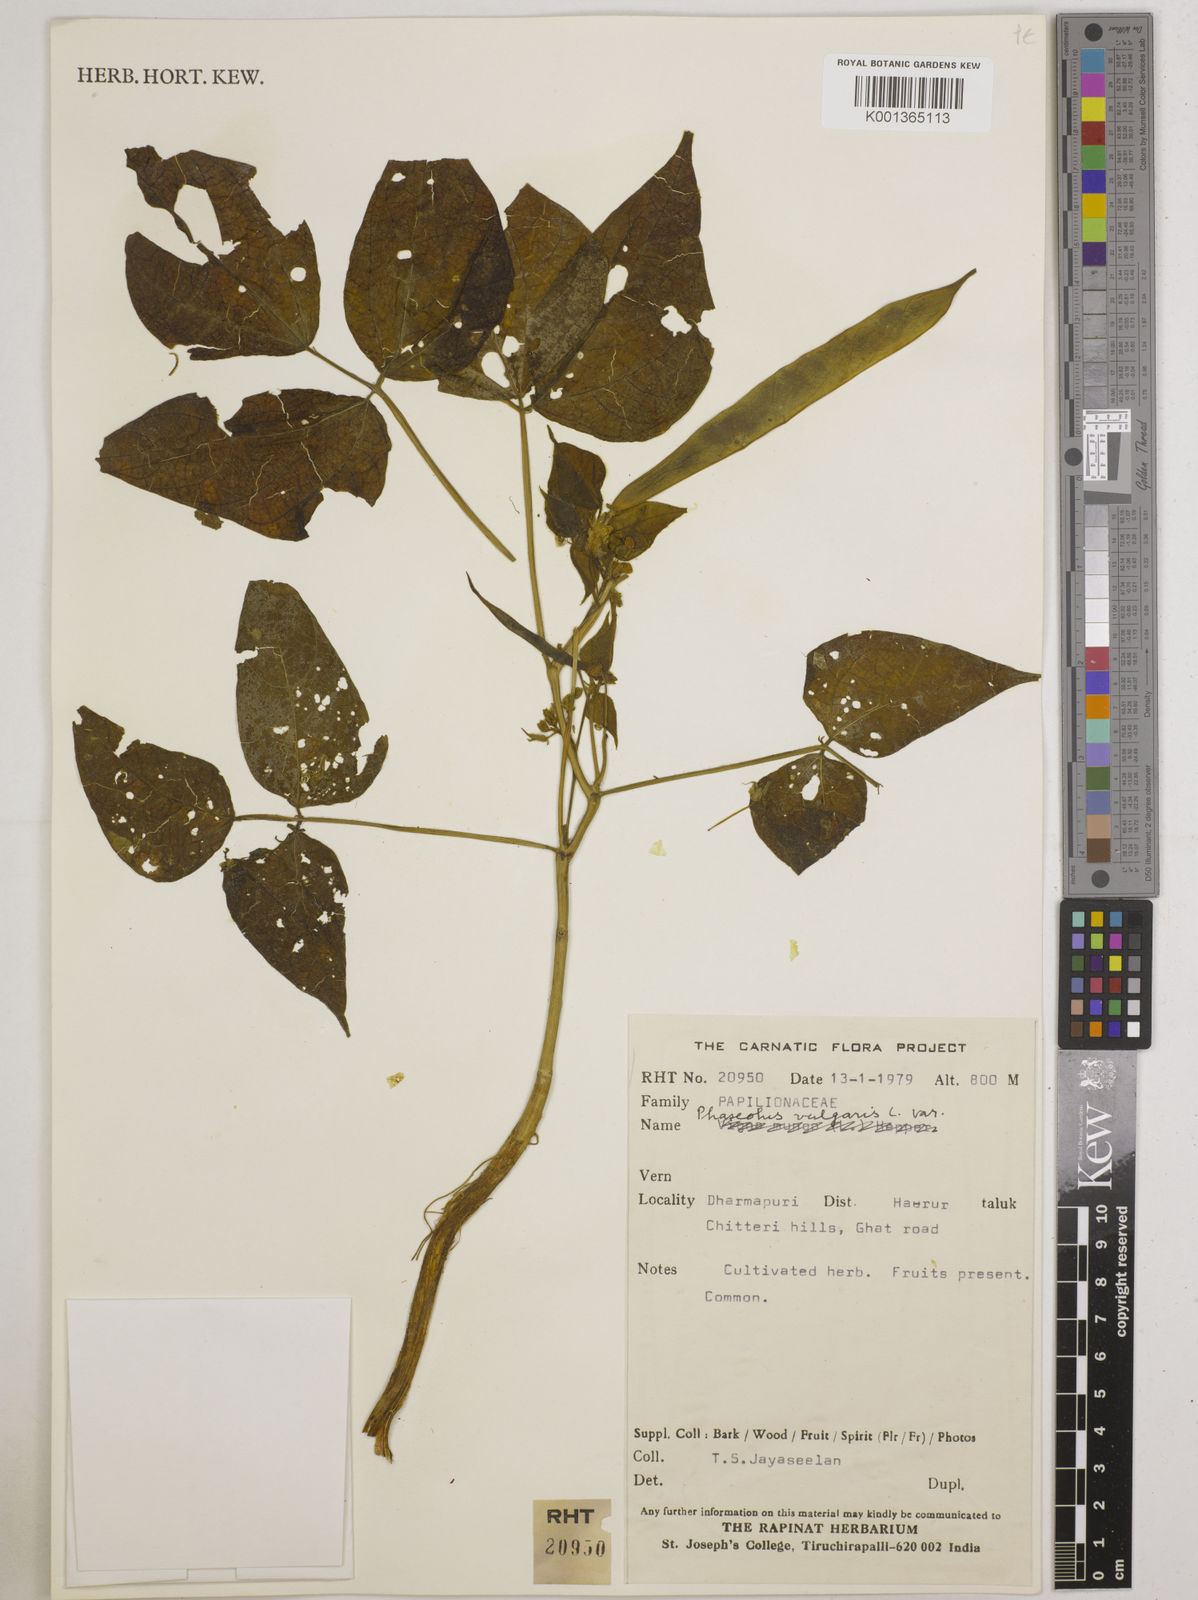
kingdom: Plantae
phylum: Tracheophyta
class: Magnoliopsida
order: Fabales
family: Fabaceae
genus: Phaseolus
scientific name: Phaseolus vulgaris
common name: Bean
